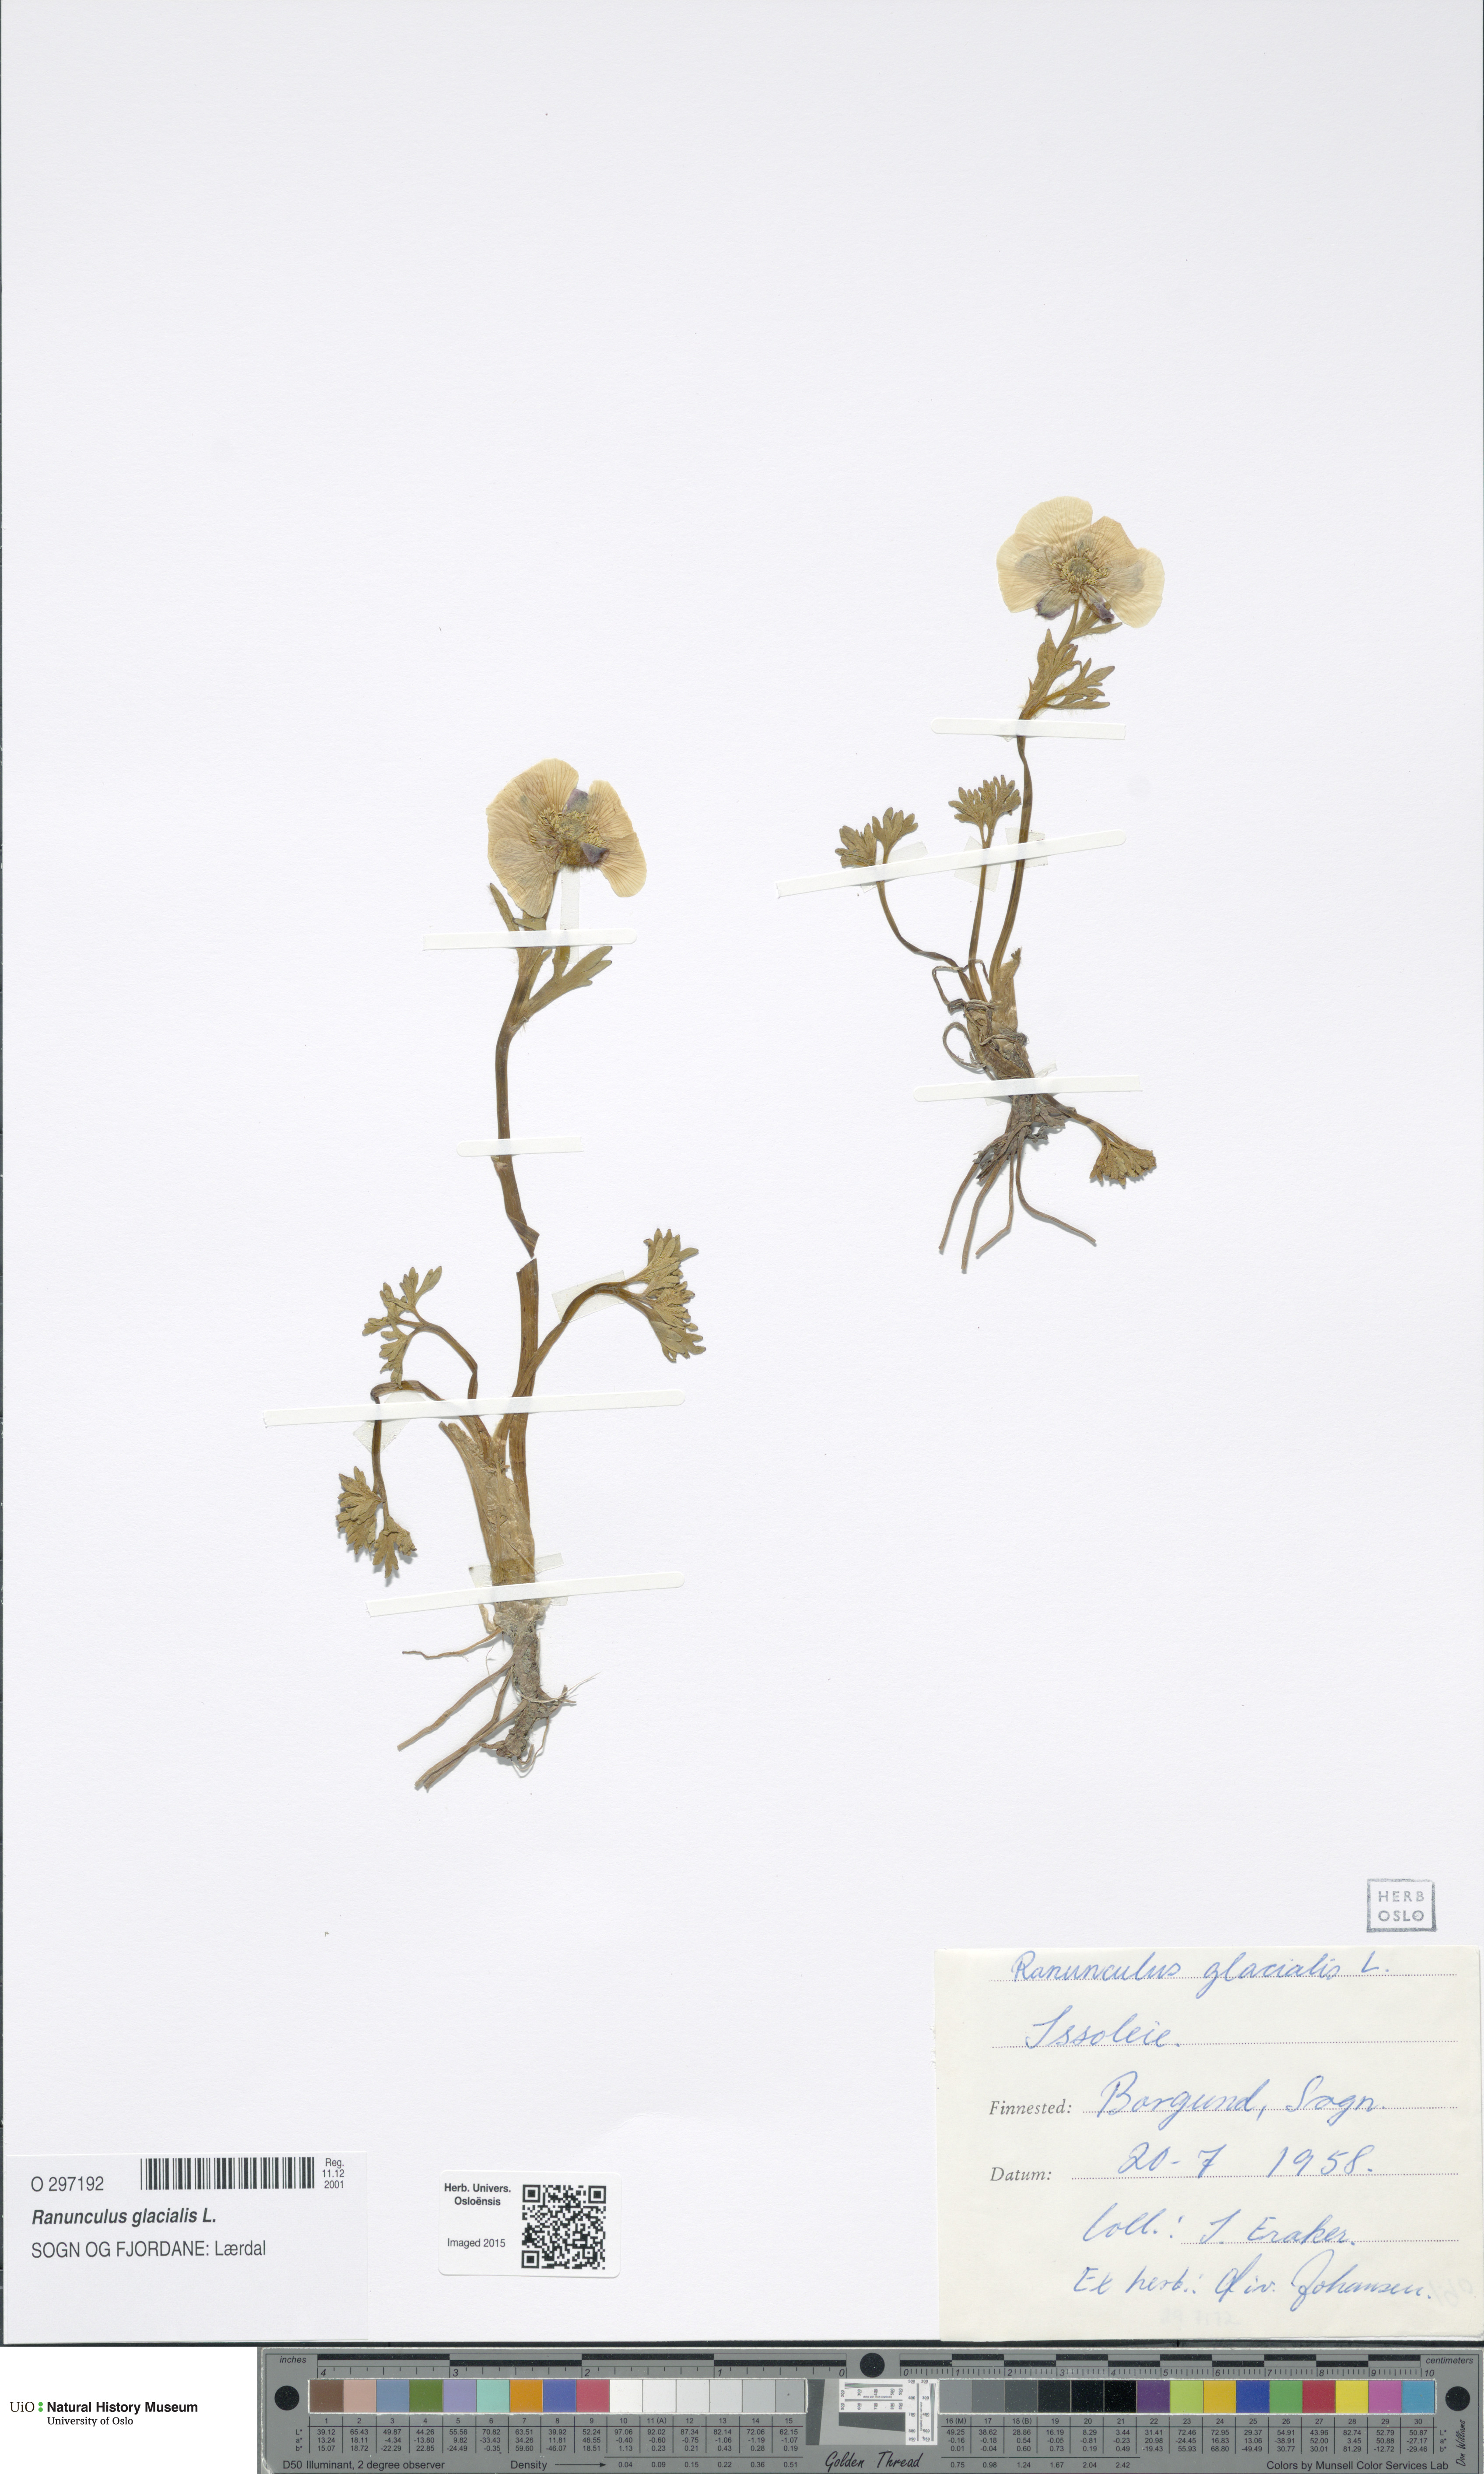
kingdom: Plantae
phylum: Tracheophyta
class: Magnoliopsida
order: Ranunculales
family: Ranunculaceae
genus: Ranunculus
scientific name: Ranunculus glacialis
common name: Glacier buttercup
